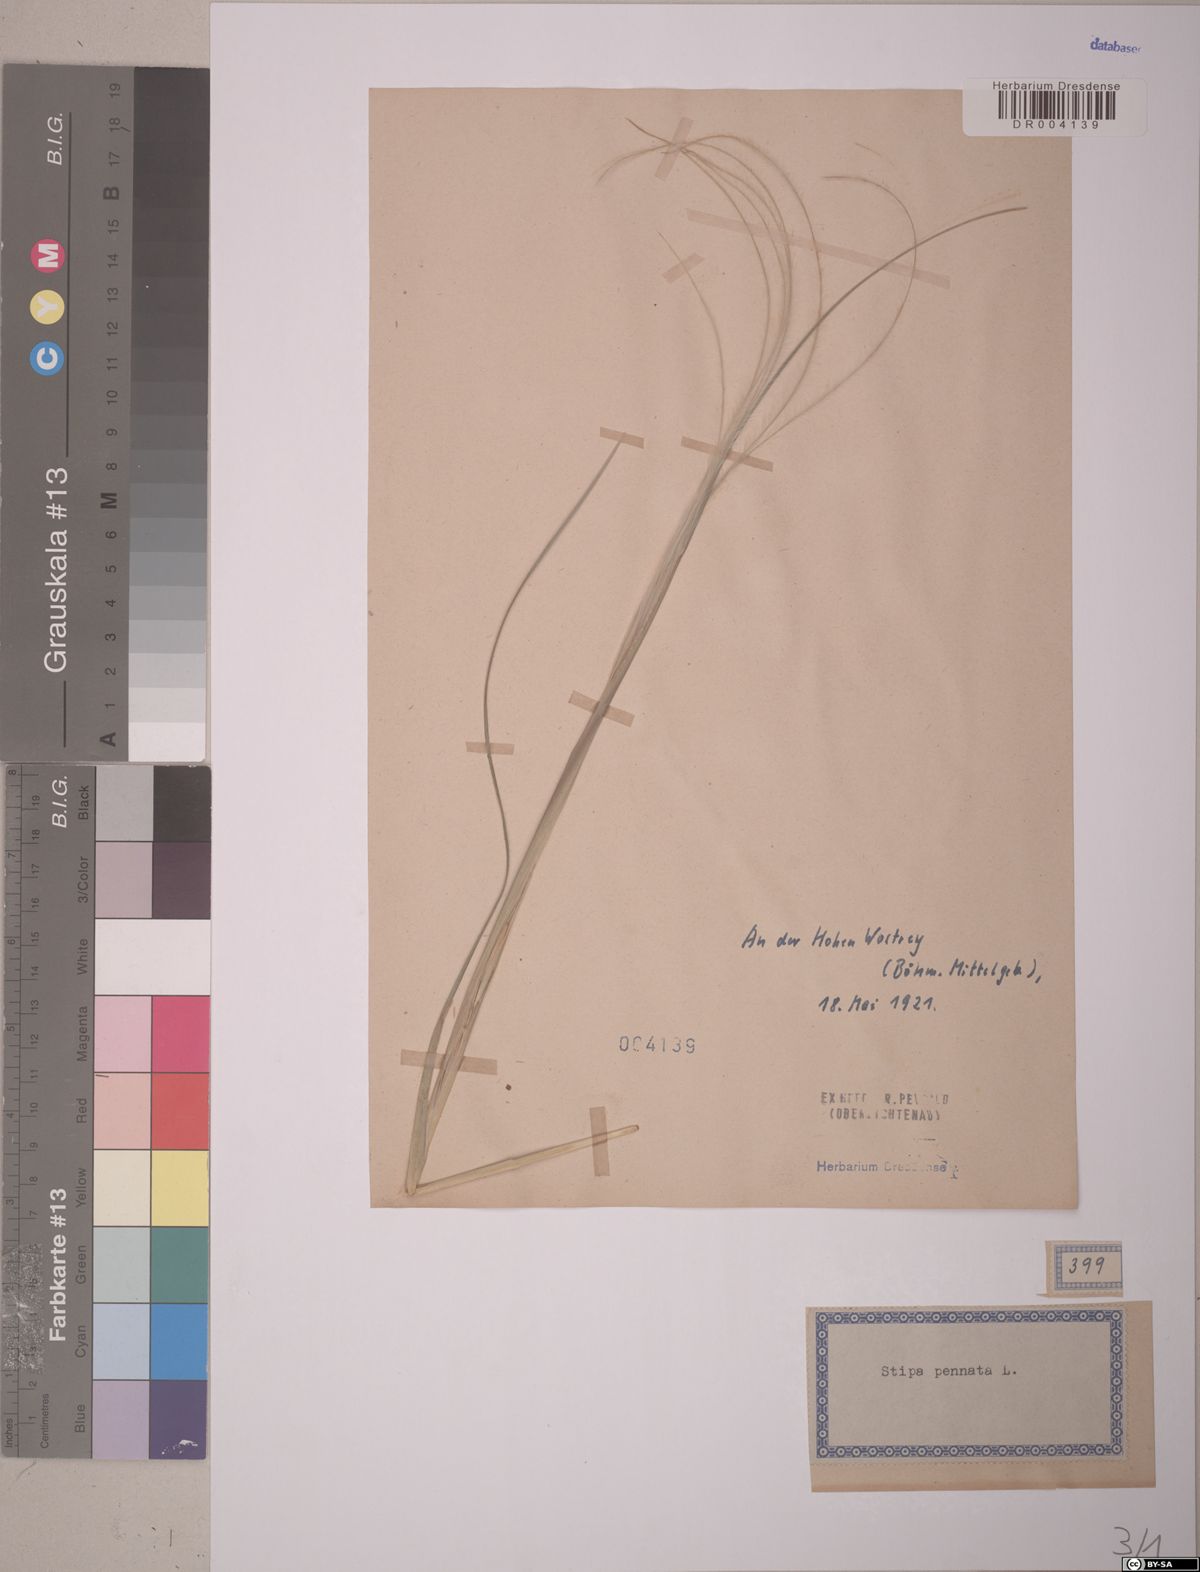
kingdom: Plantae
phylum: Tracheophyta
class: Liliopsida
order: Poales
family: Poaceae
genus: Stipa
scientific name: Stipa pennata
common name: European feather grass
